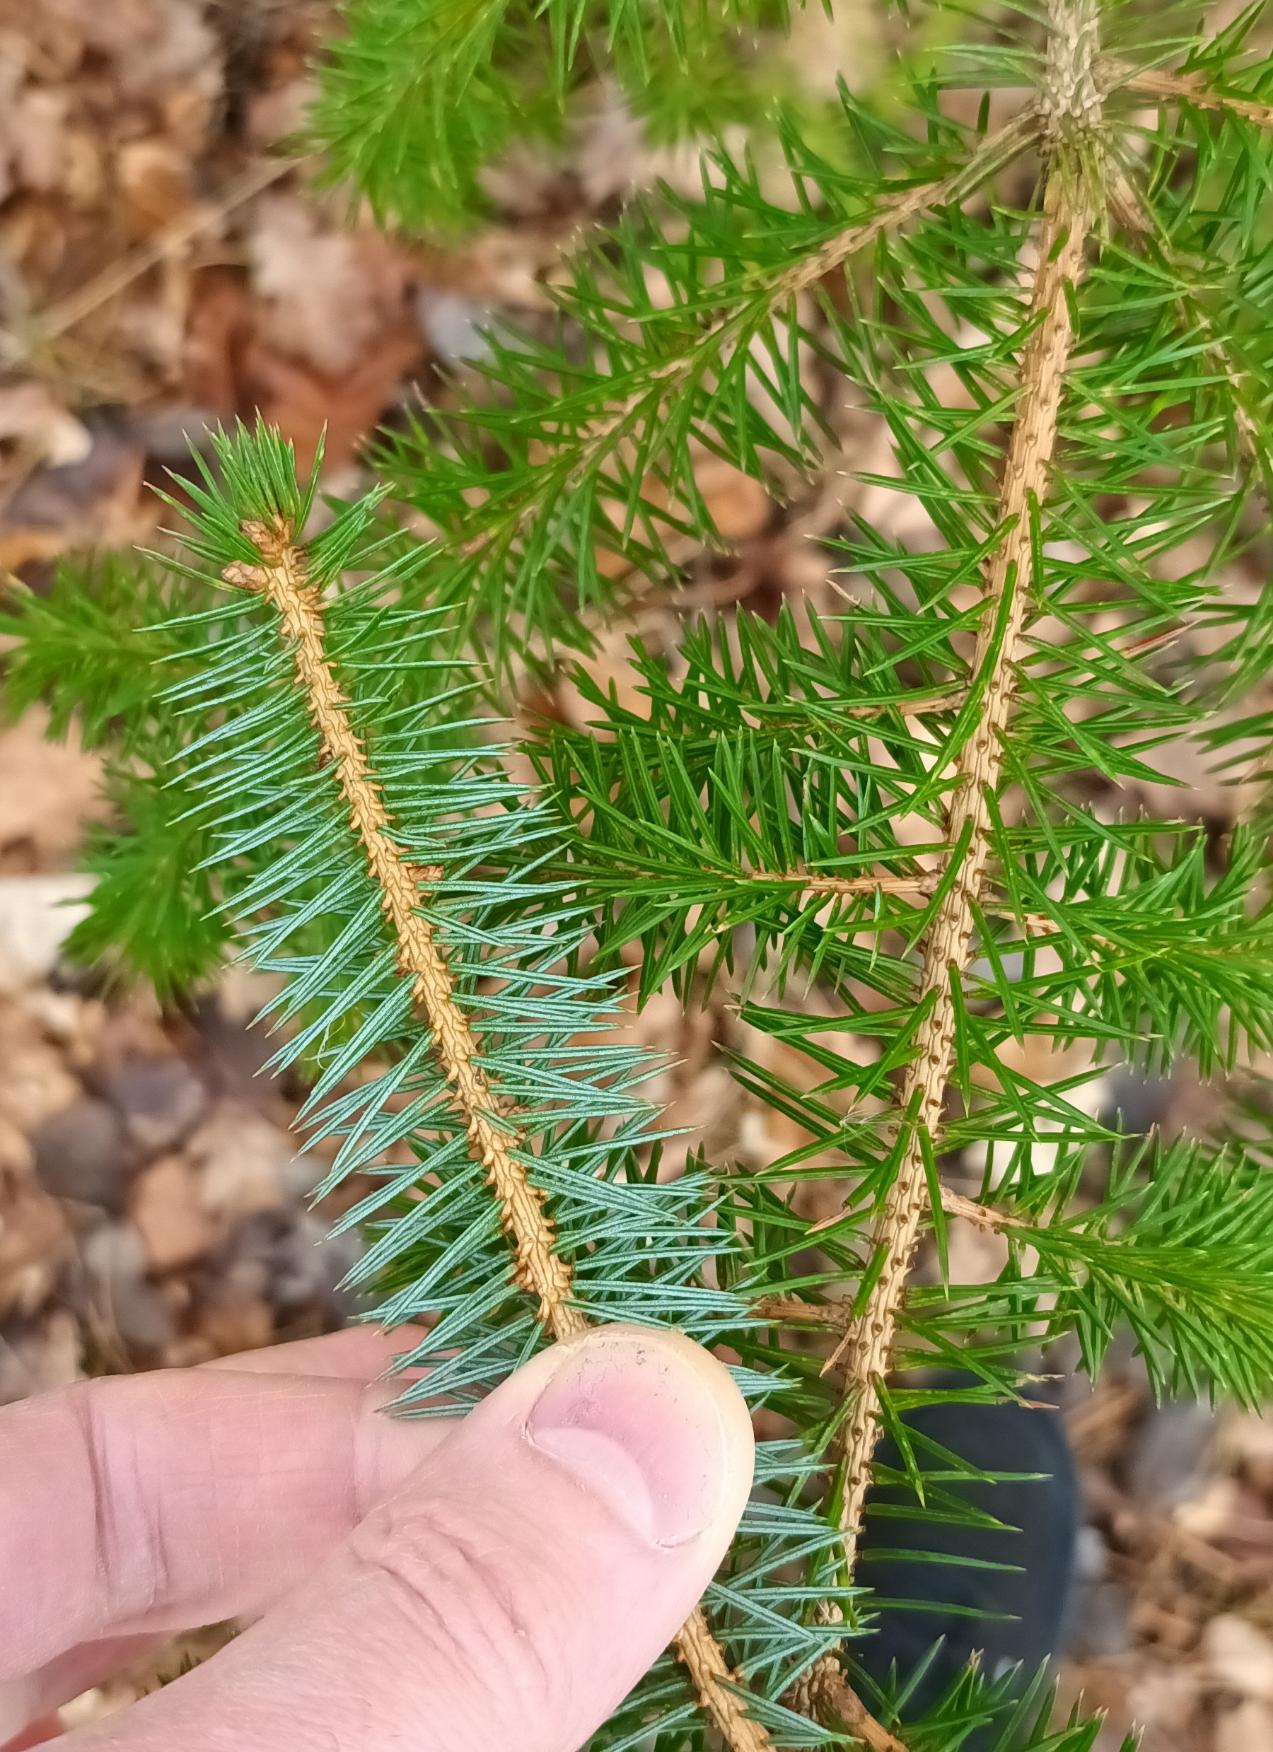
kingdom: Plantae
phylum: Tracheophyta
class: Pinopsida
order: Pinales
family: Pinaceae
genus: Picea
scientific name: Picea sitchensis
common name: Sitka-gran
